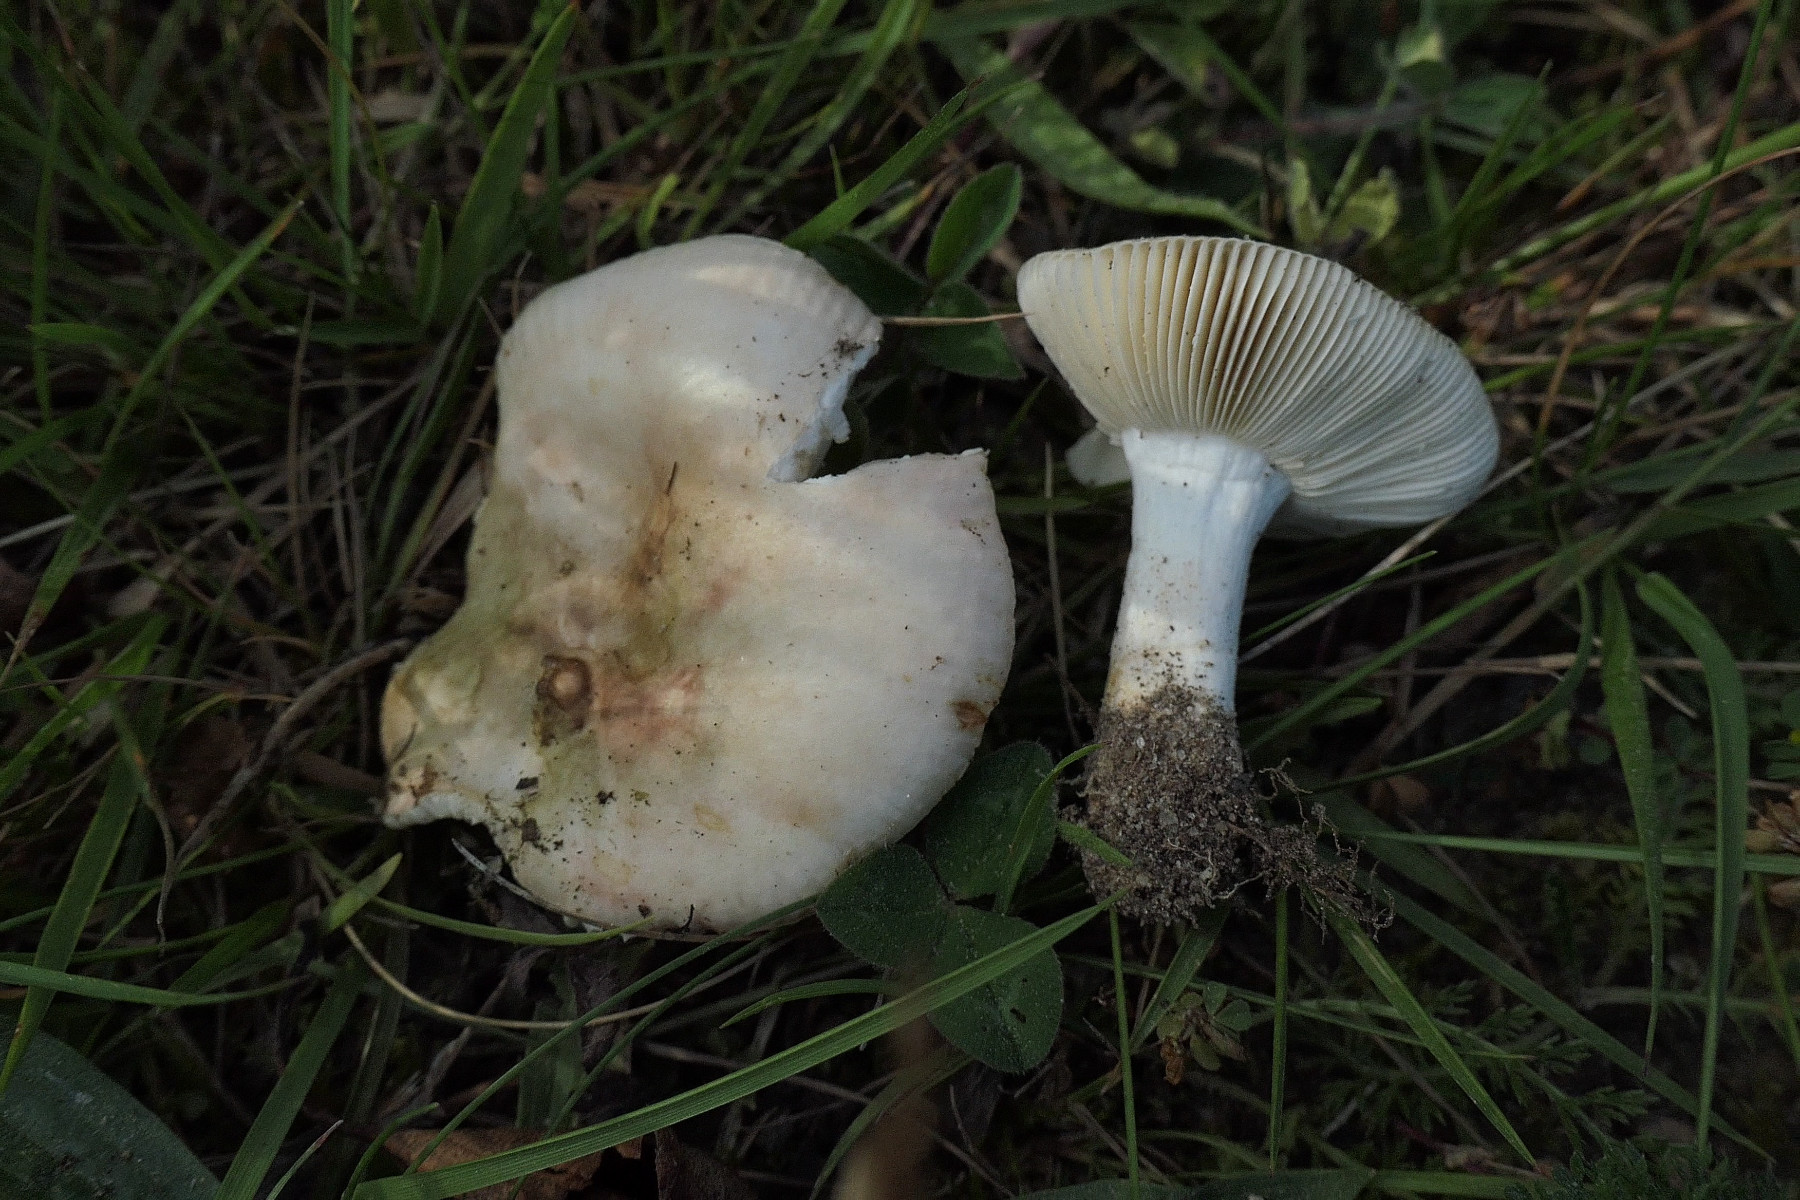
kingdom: Fungi
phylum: Basidiomycota
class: Agaricomycetes
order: Russulales
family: Russulaceae
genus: Russula
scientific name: Russula versicolor
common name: foranderlig skørhat
